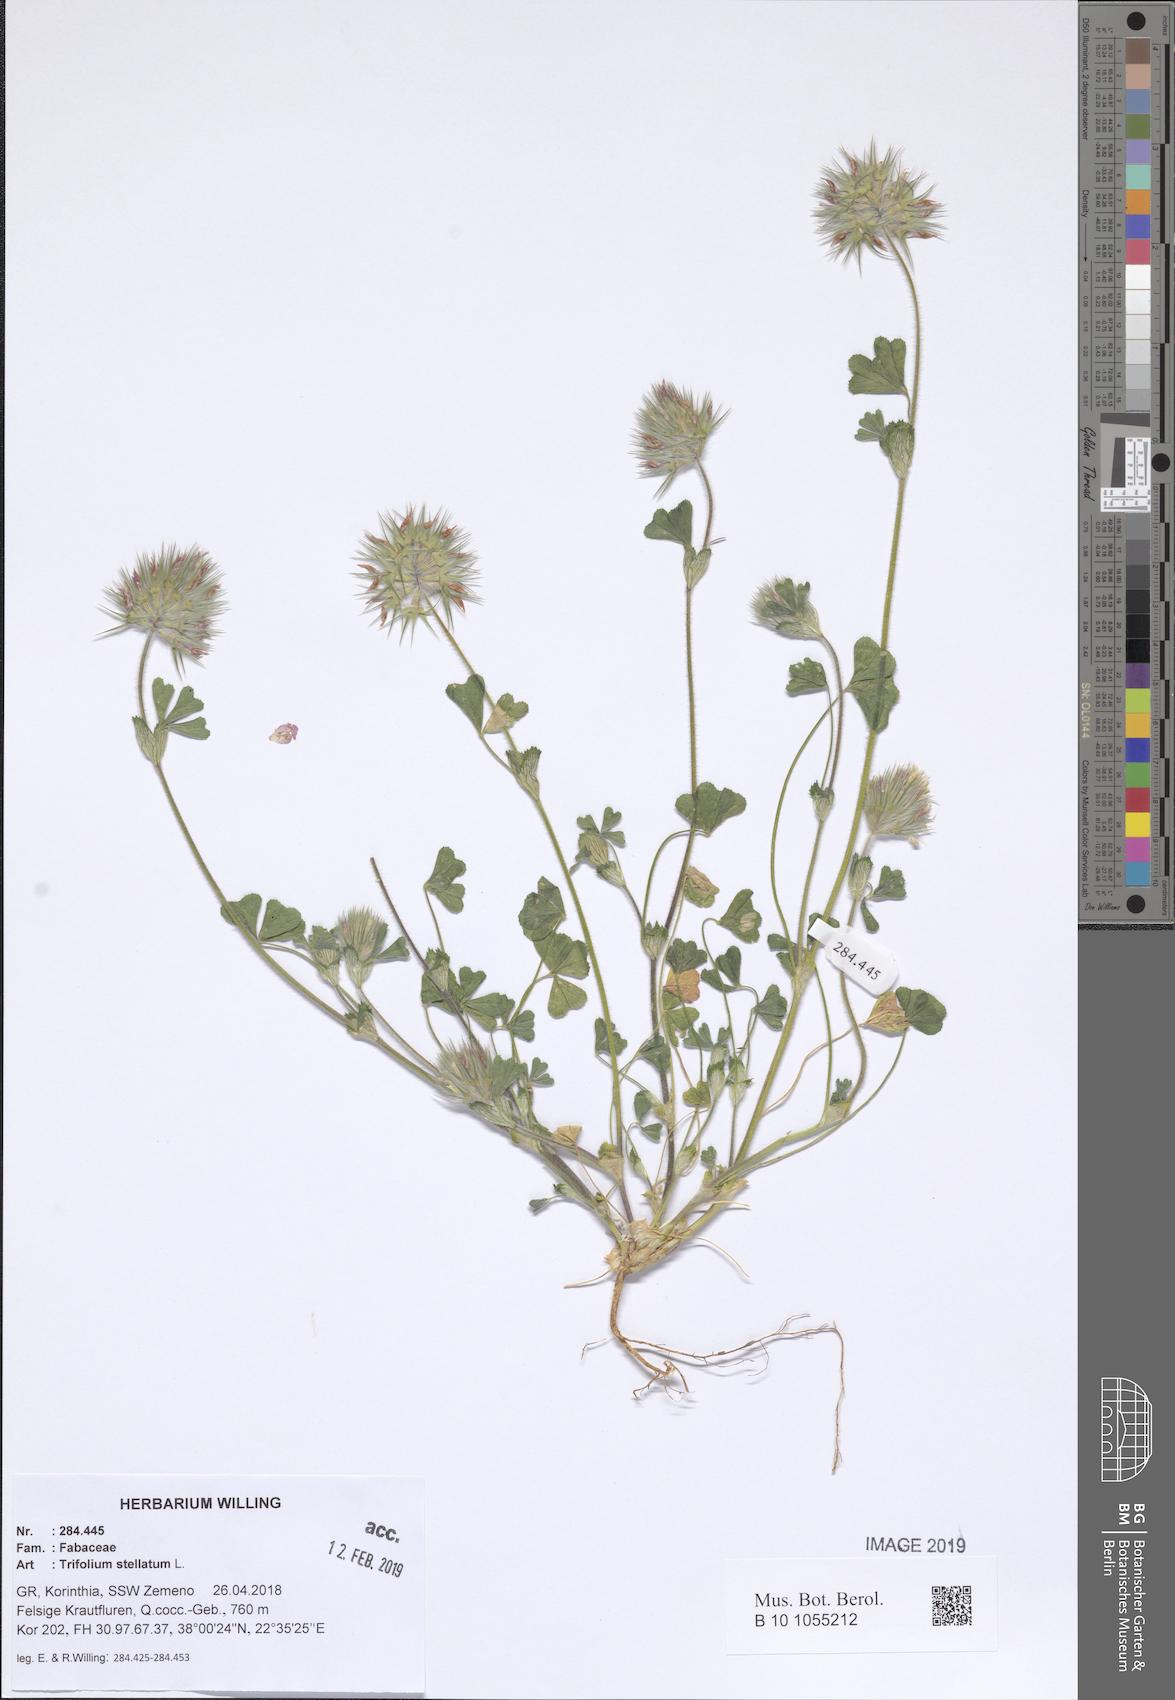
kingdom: Plantae
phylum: Tracheophyta
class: Magnoliopsida
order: Fabales
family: Fabaceae
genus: Trifolium
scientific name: Trifolium stellatum
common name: Starry clover
